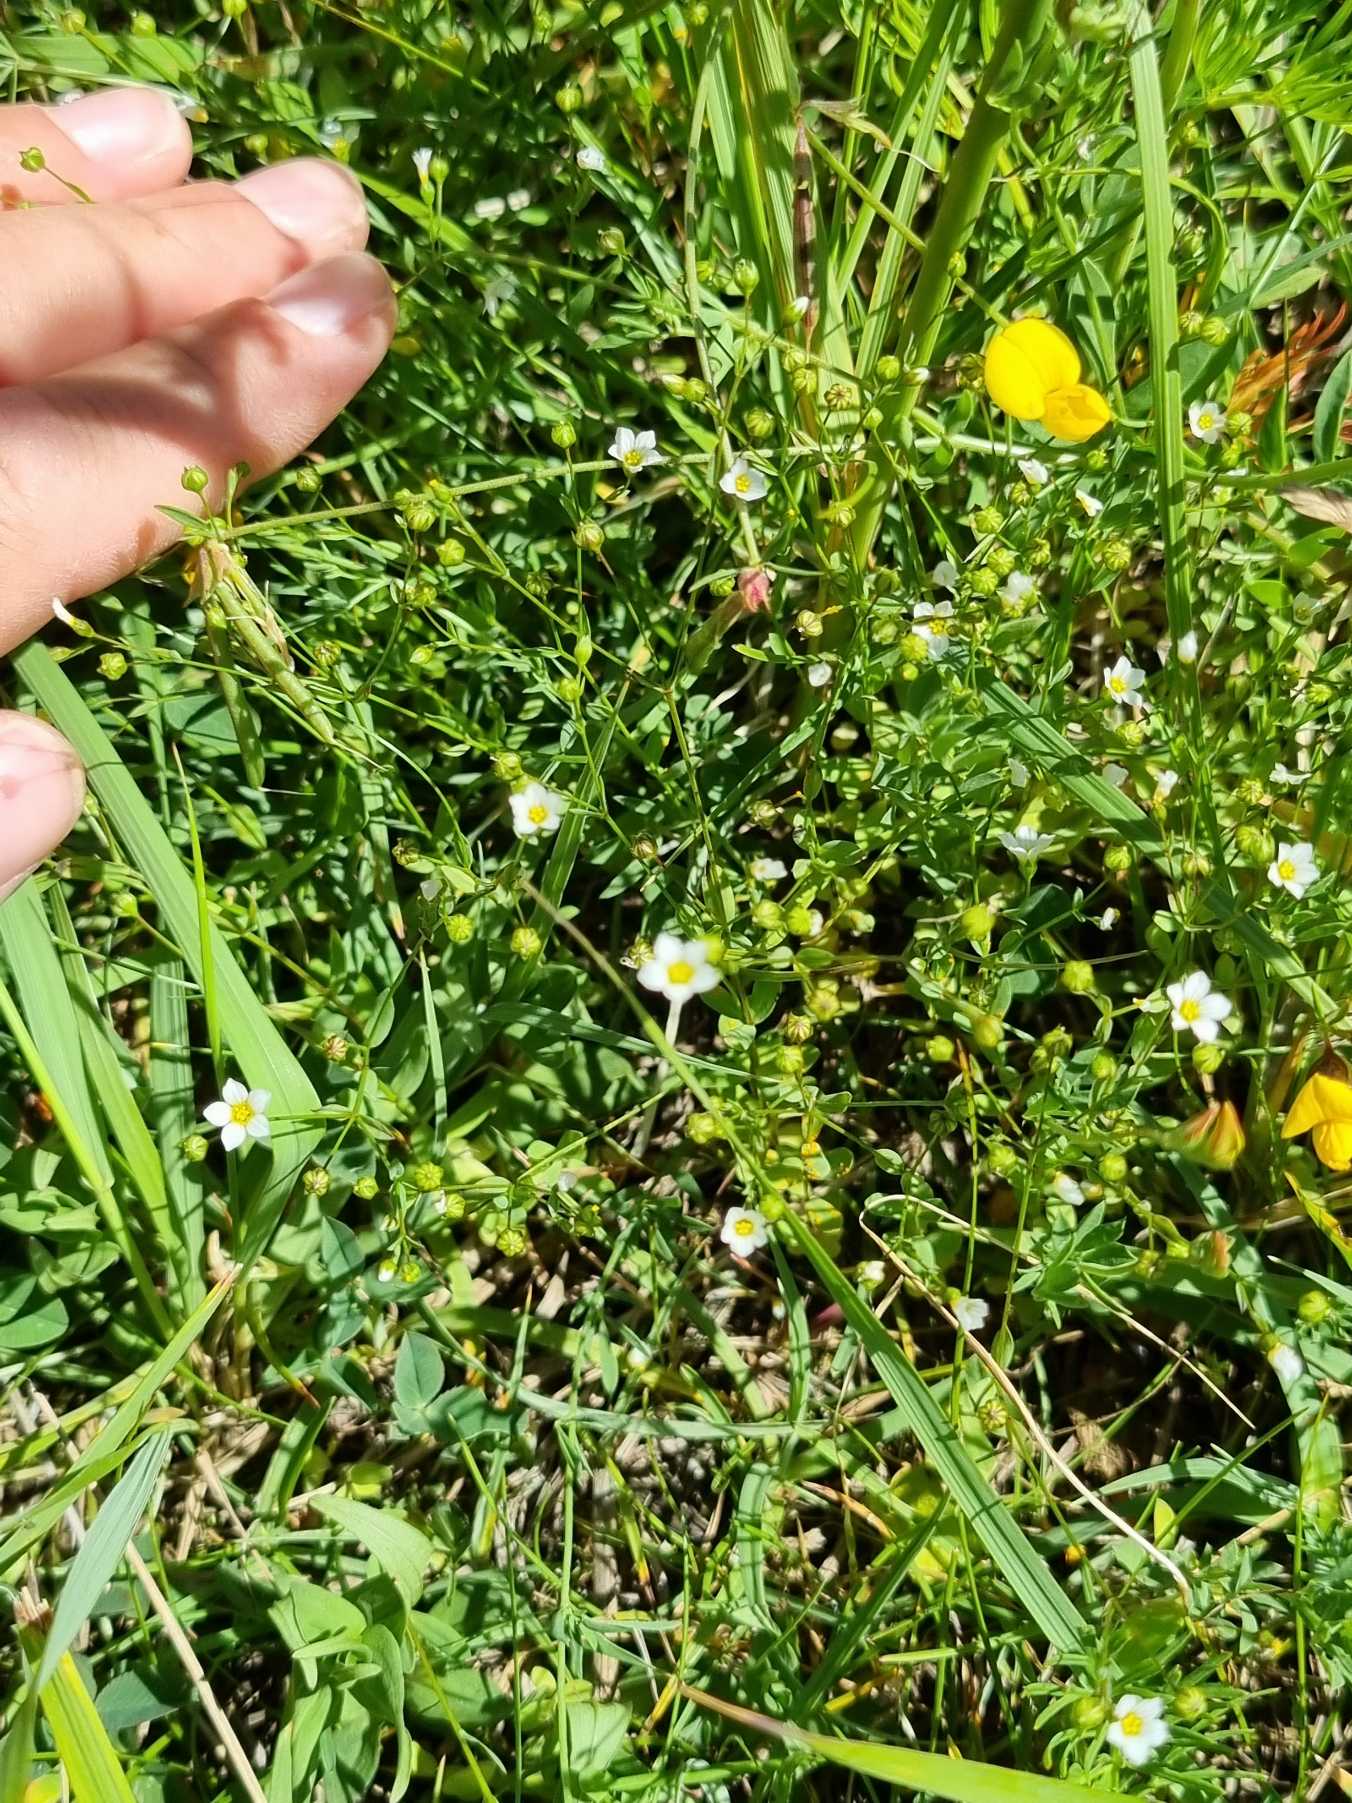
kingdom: Plantae
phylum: Tracheophyta
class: Magnoliopsida
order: Caryophyllales
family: Caryophyllaceae
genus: Sagina
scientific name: Sagina nodosa
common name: Knude-firling
